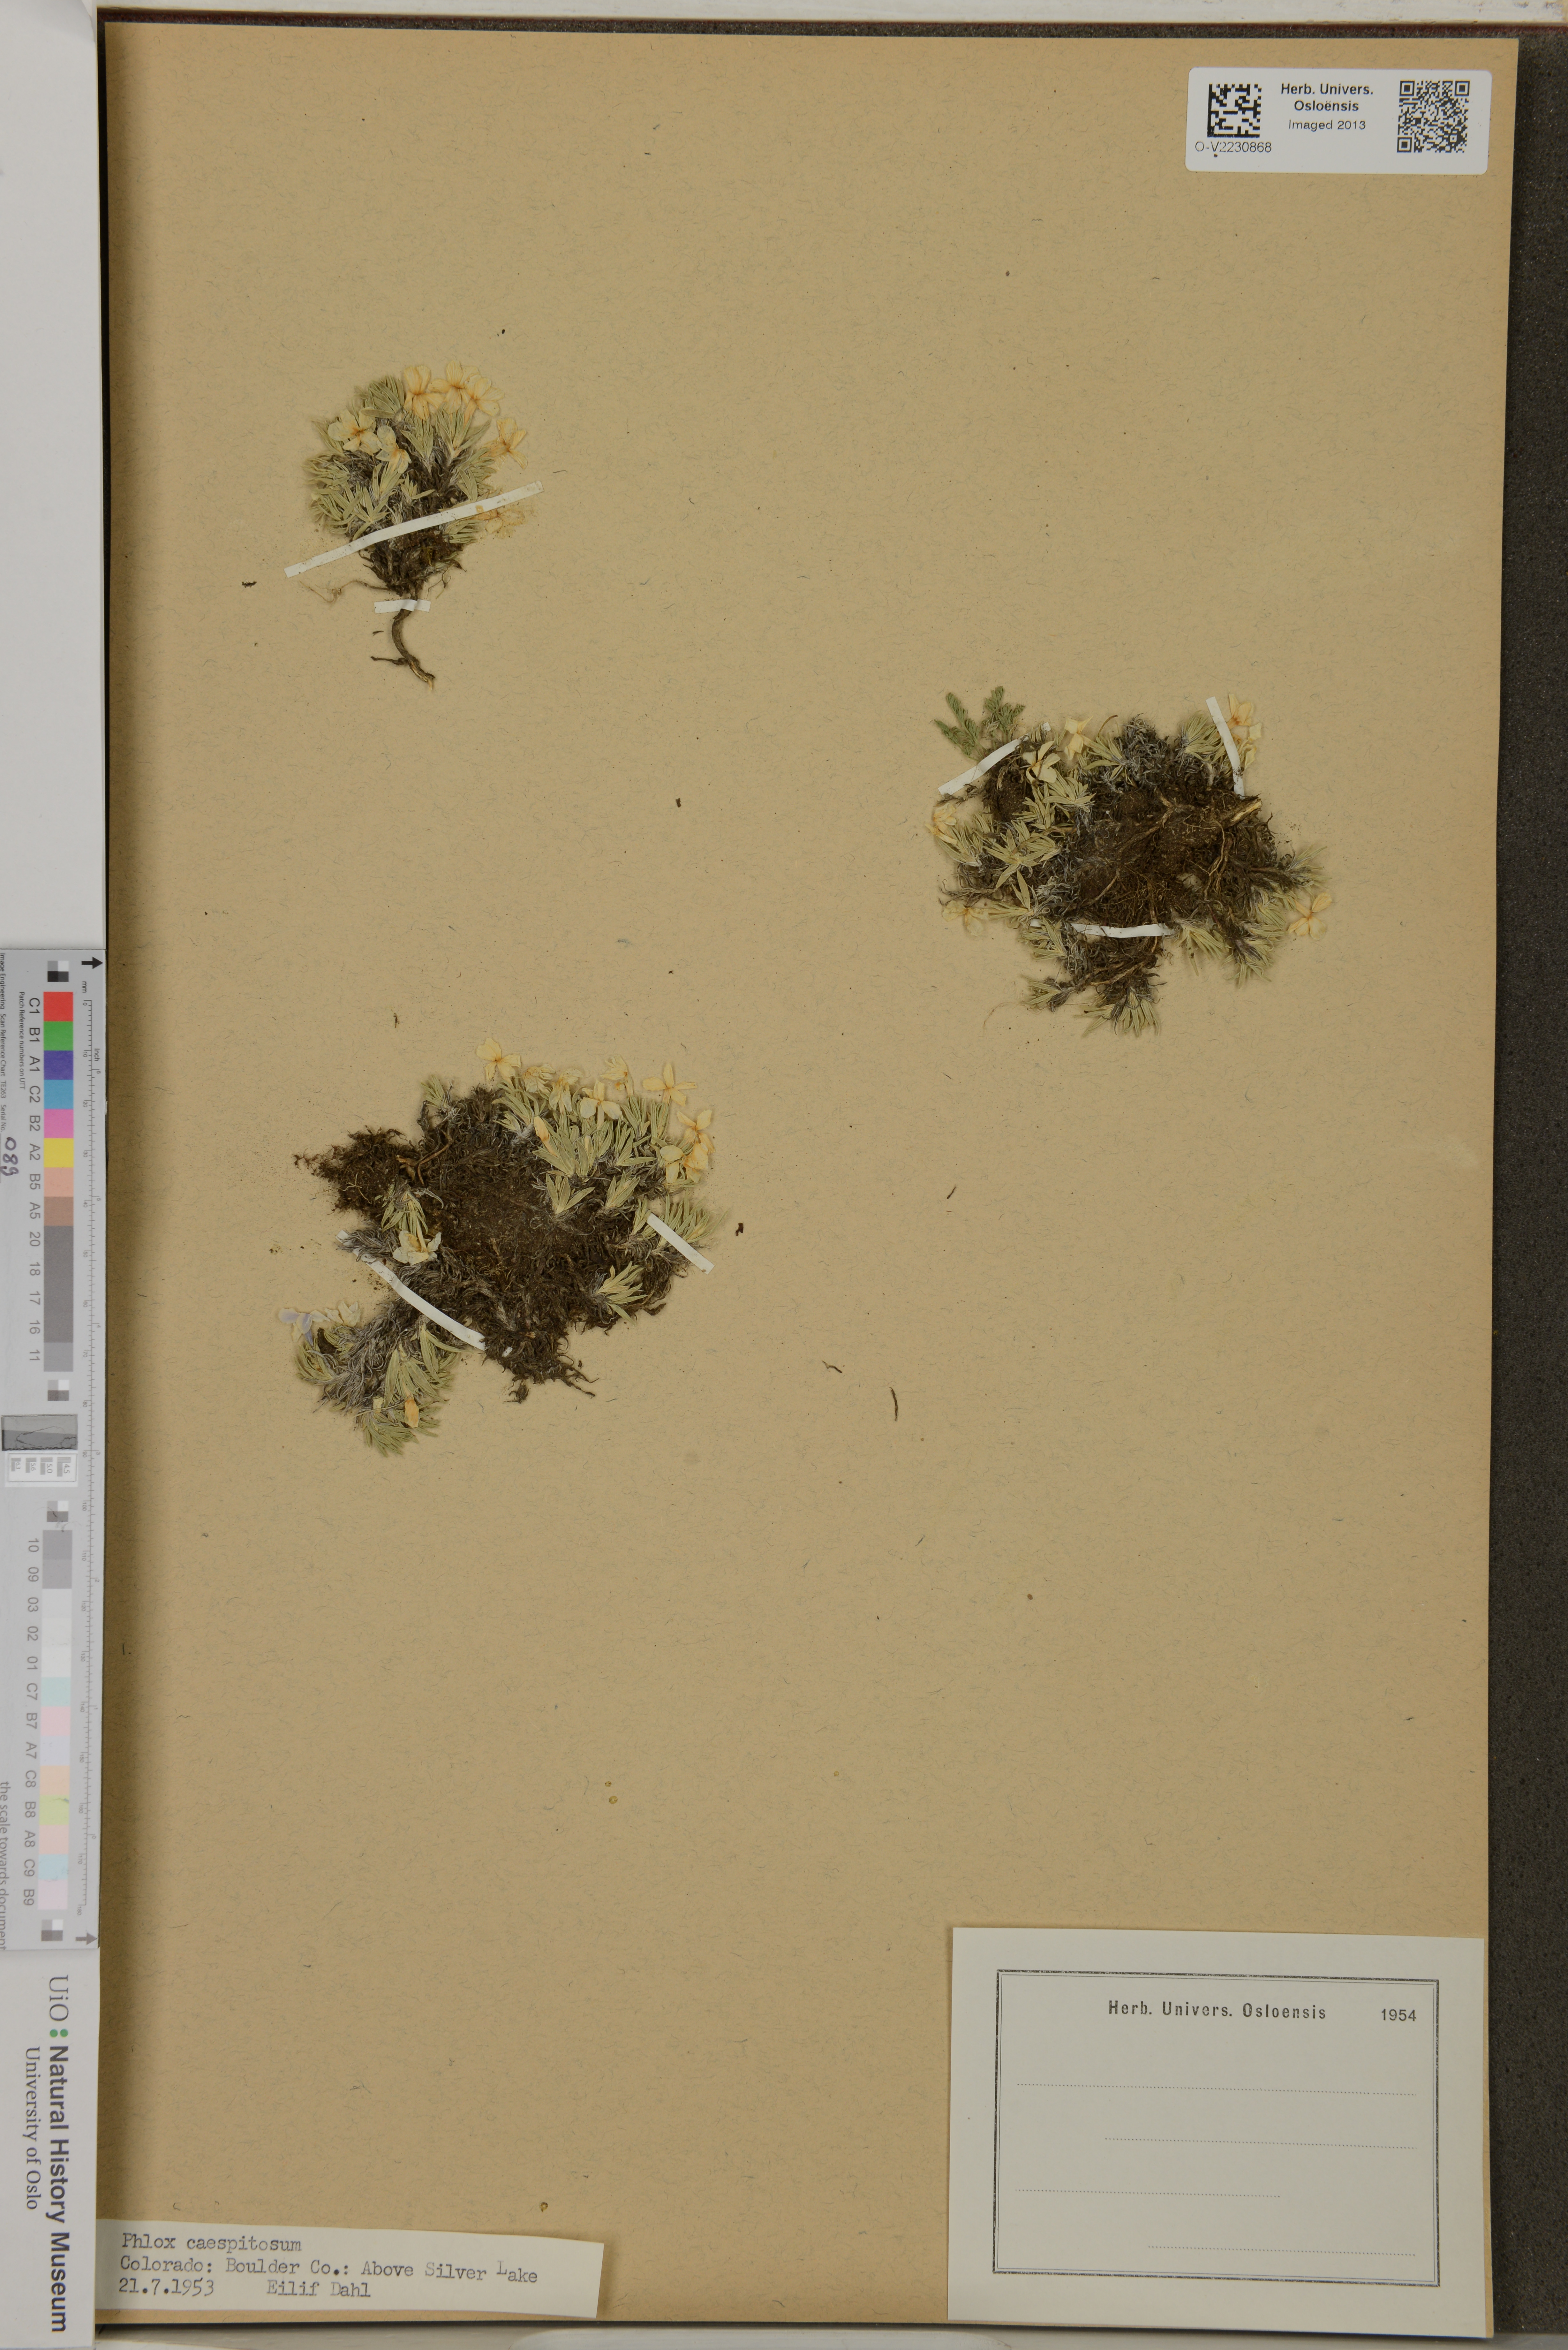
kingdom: Plantae
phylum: Tracheophyta
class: Magnoliopsida
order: Ericales
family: Polemoniaceae
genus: Phlox
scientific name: Phlox caespitosa
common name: Cushion phlox
